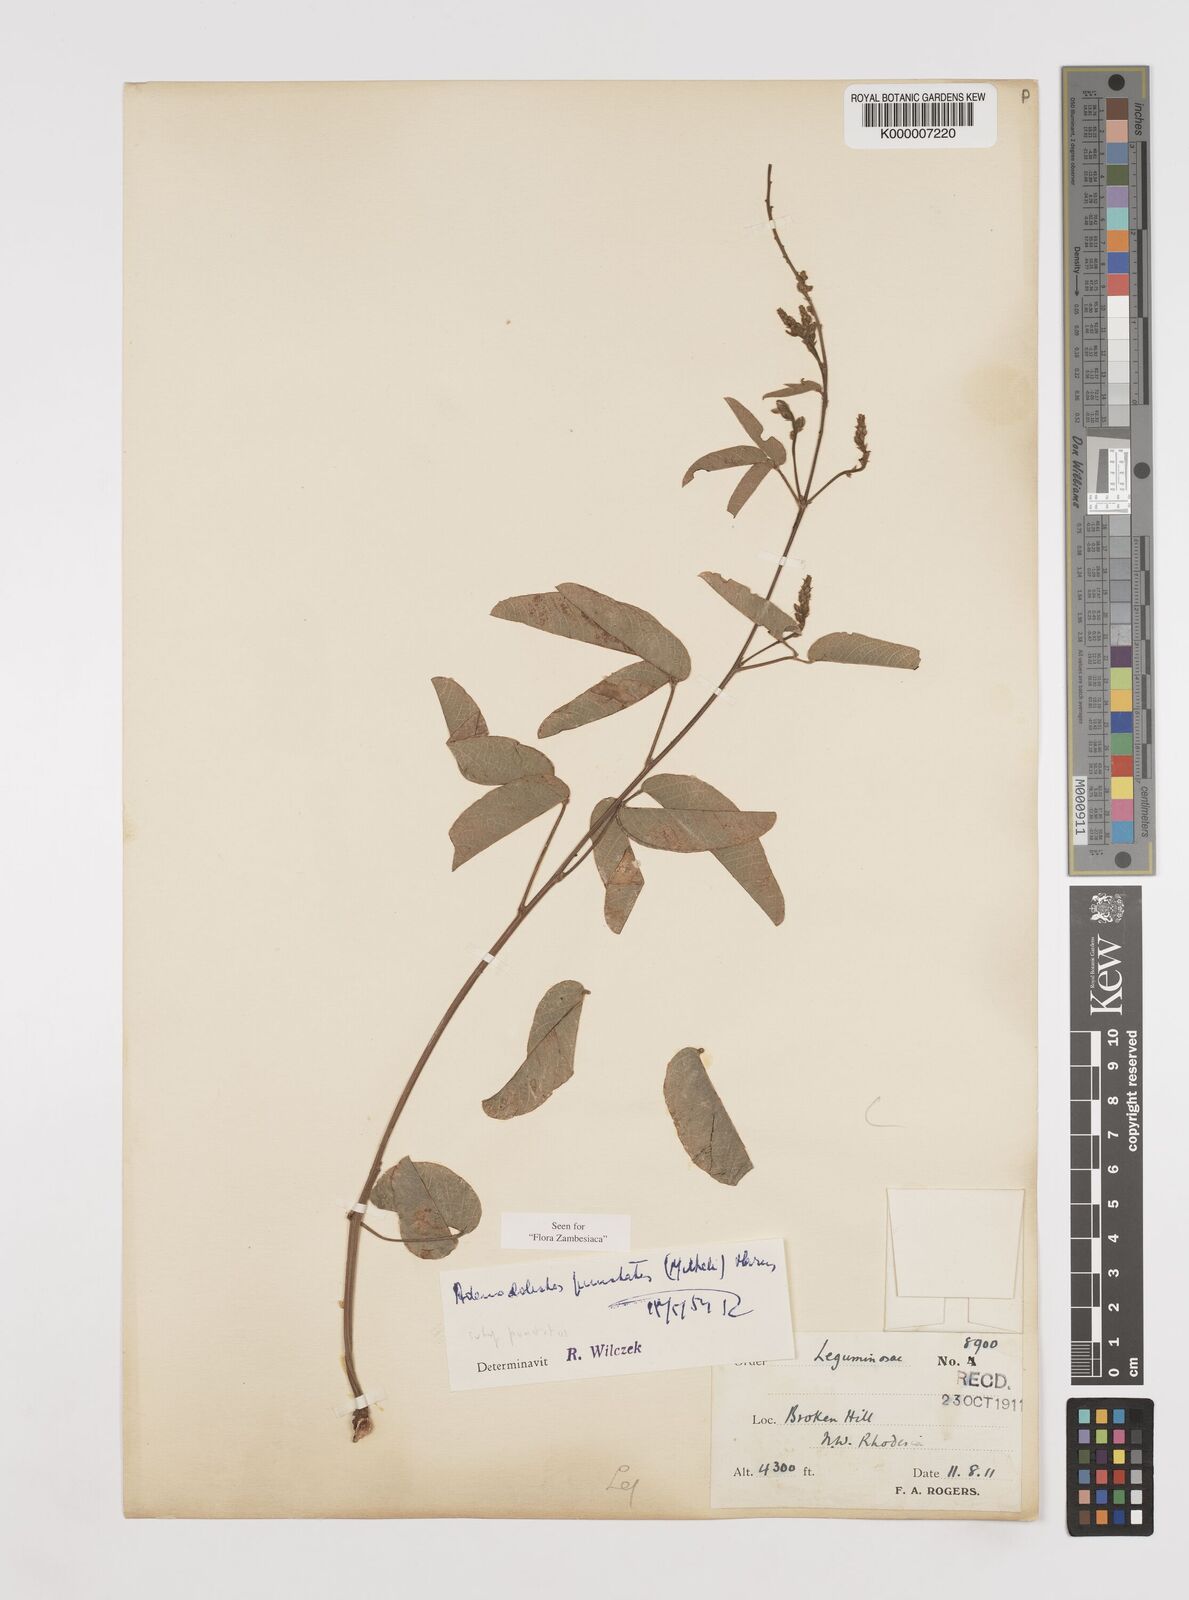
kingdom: Plantae
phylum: Tracheophyta
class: Magnoliopsida
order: Fabales
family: Fabaceae
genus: Adenodolichos
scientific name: Adenodolichos punctatus
